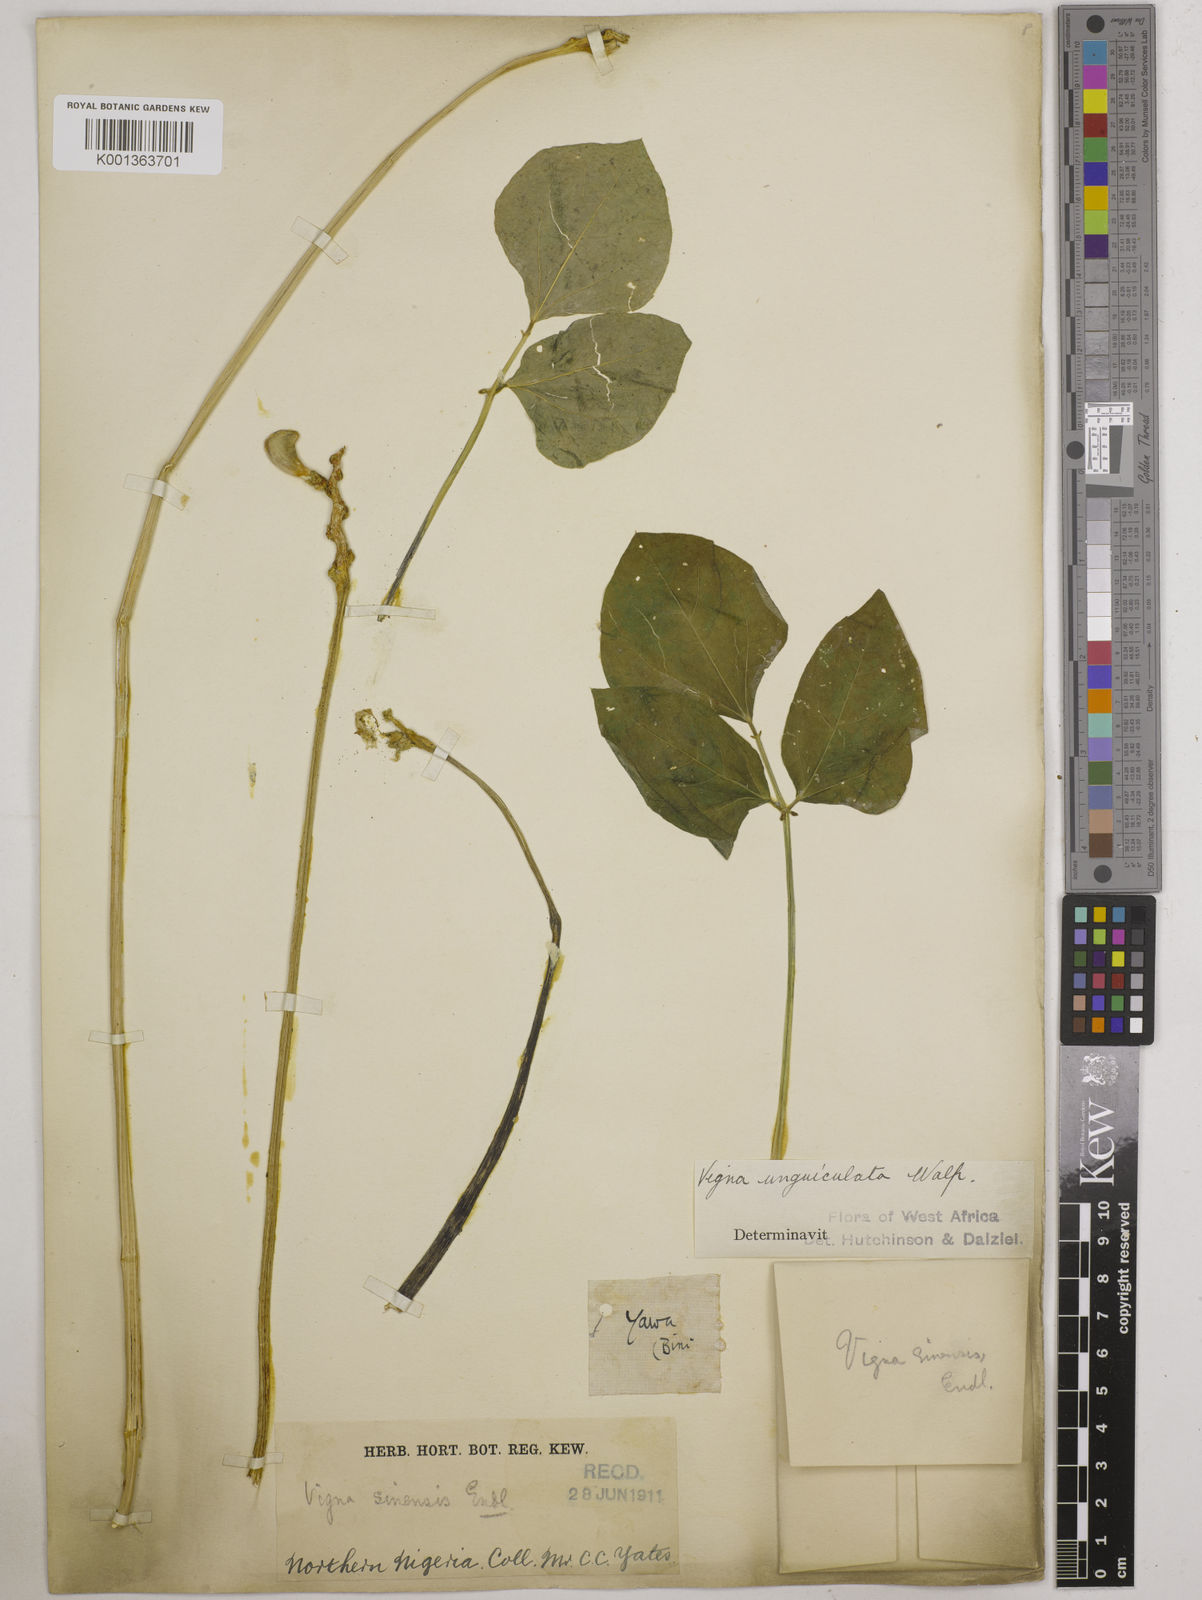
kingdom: Plantae
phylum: Tracheophyta
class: Magnoliopsida
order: Fabales
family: Fabaceae
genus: Vigna
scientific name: Vigna unguiculata
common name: Cowpea
